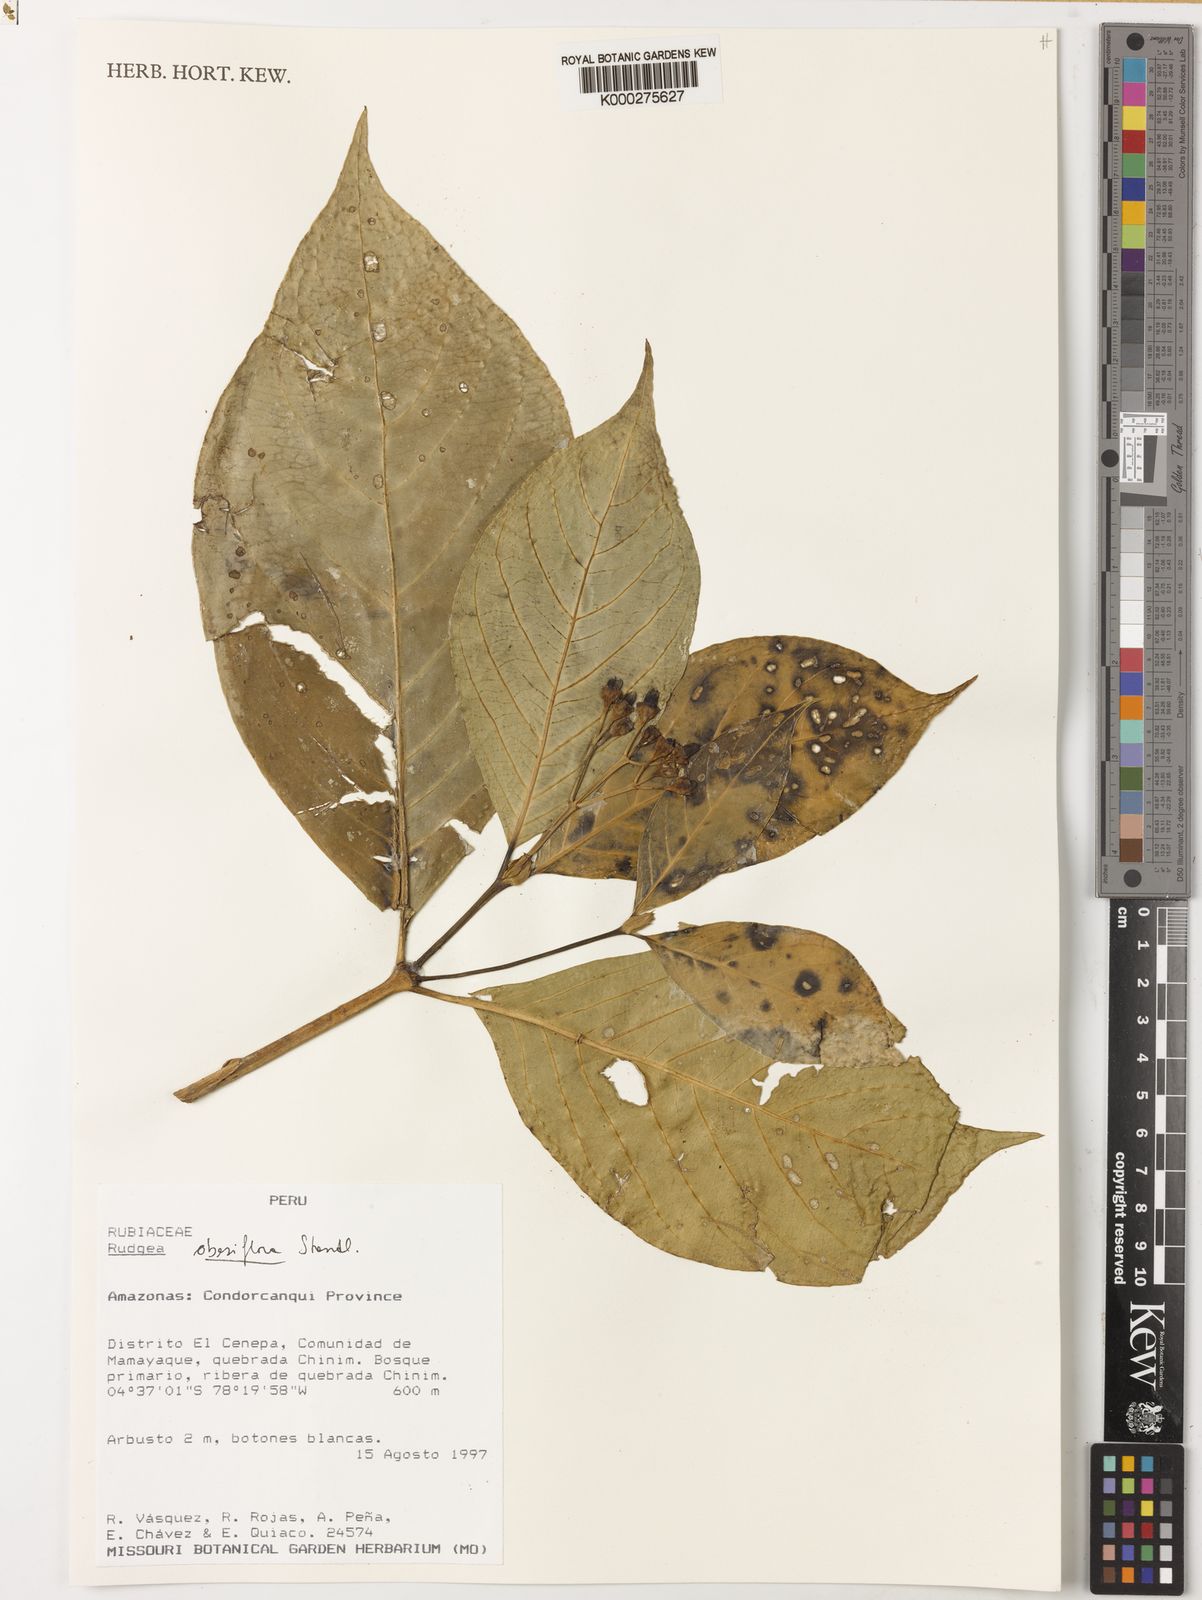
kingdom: Plantae
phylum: Tracheophyta
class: Magnoliopsida
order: Gentianales
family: Rubiaceae
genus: Rudgea
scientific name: Rudgea obesiflora
